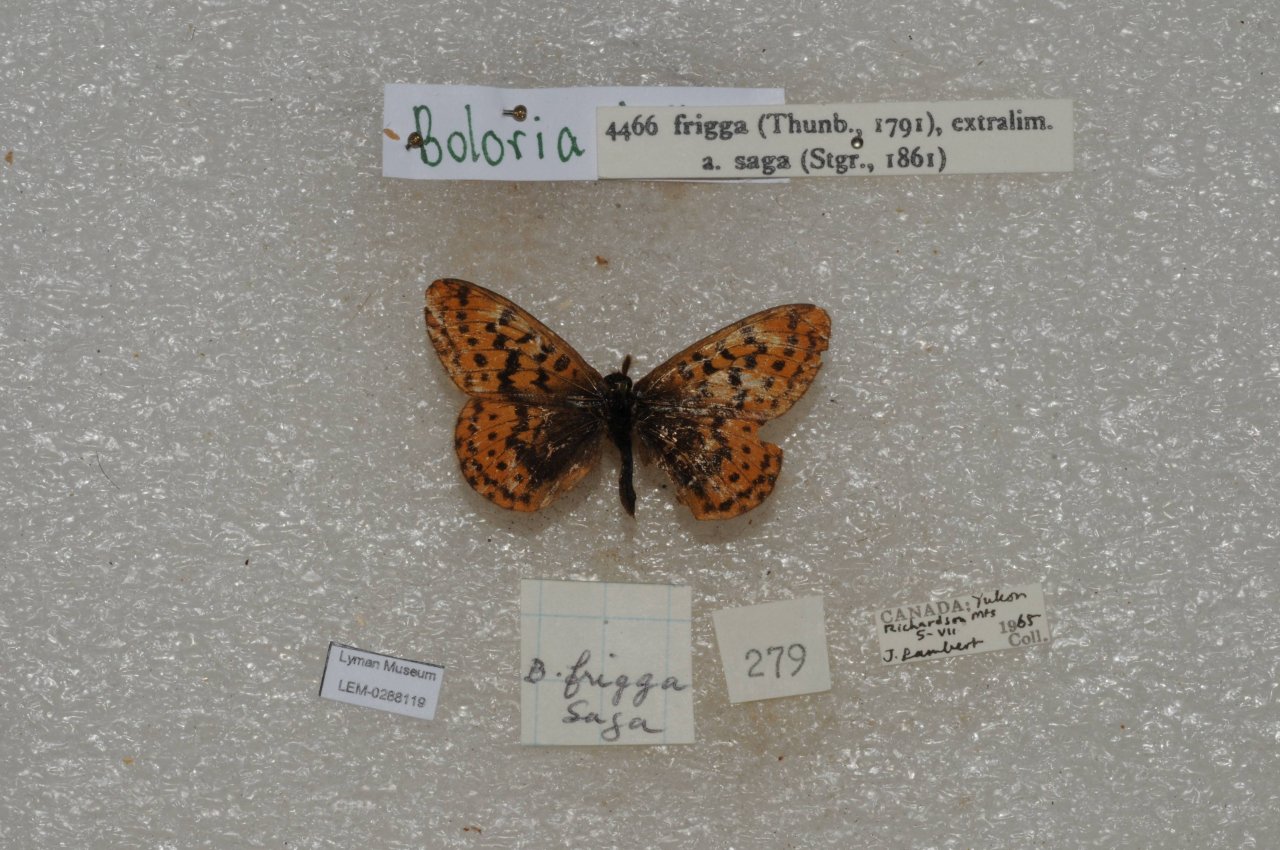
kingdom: Animalia
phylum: Arthropoda
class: Insecta
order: Lepidoptera
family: Nymphalidae
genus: Boloria
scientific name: Boloria frigga
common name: Frigga Fritillary
